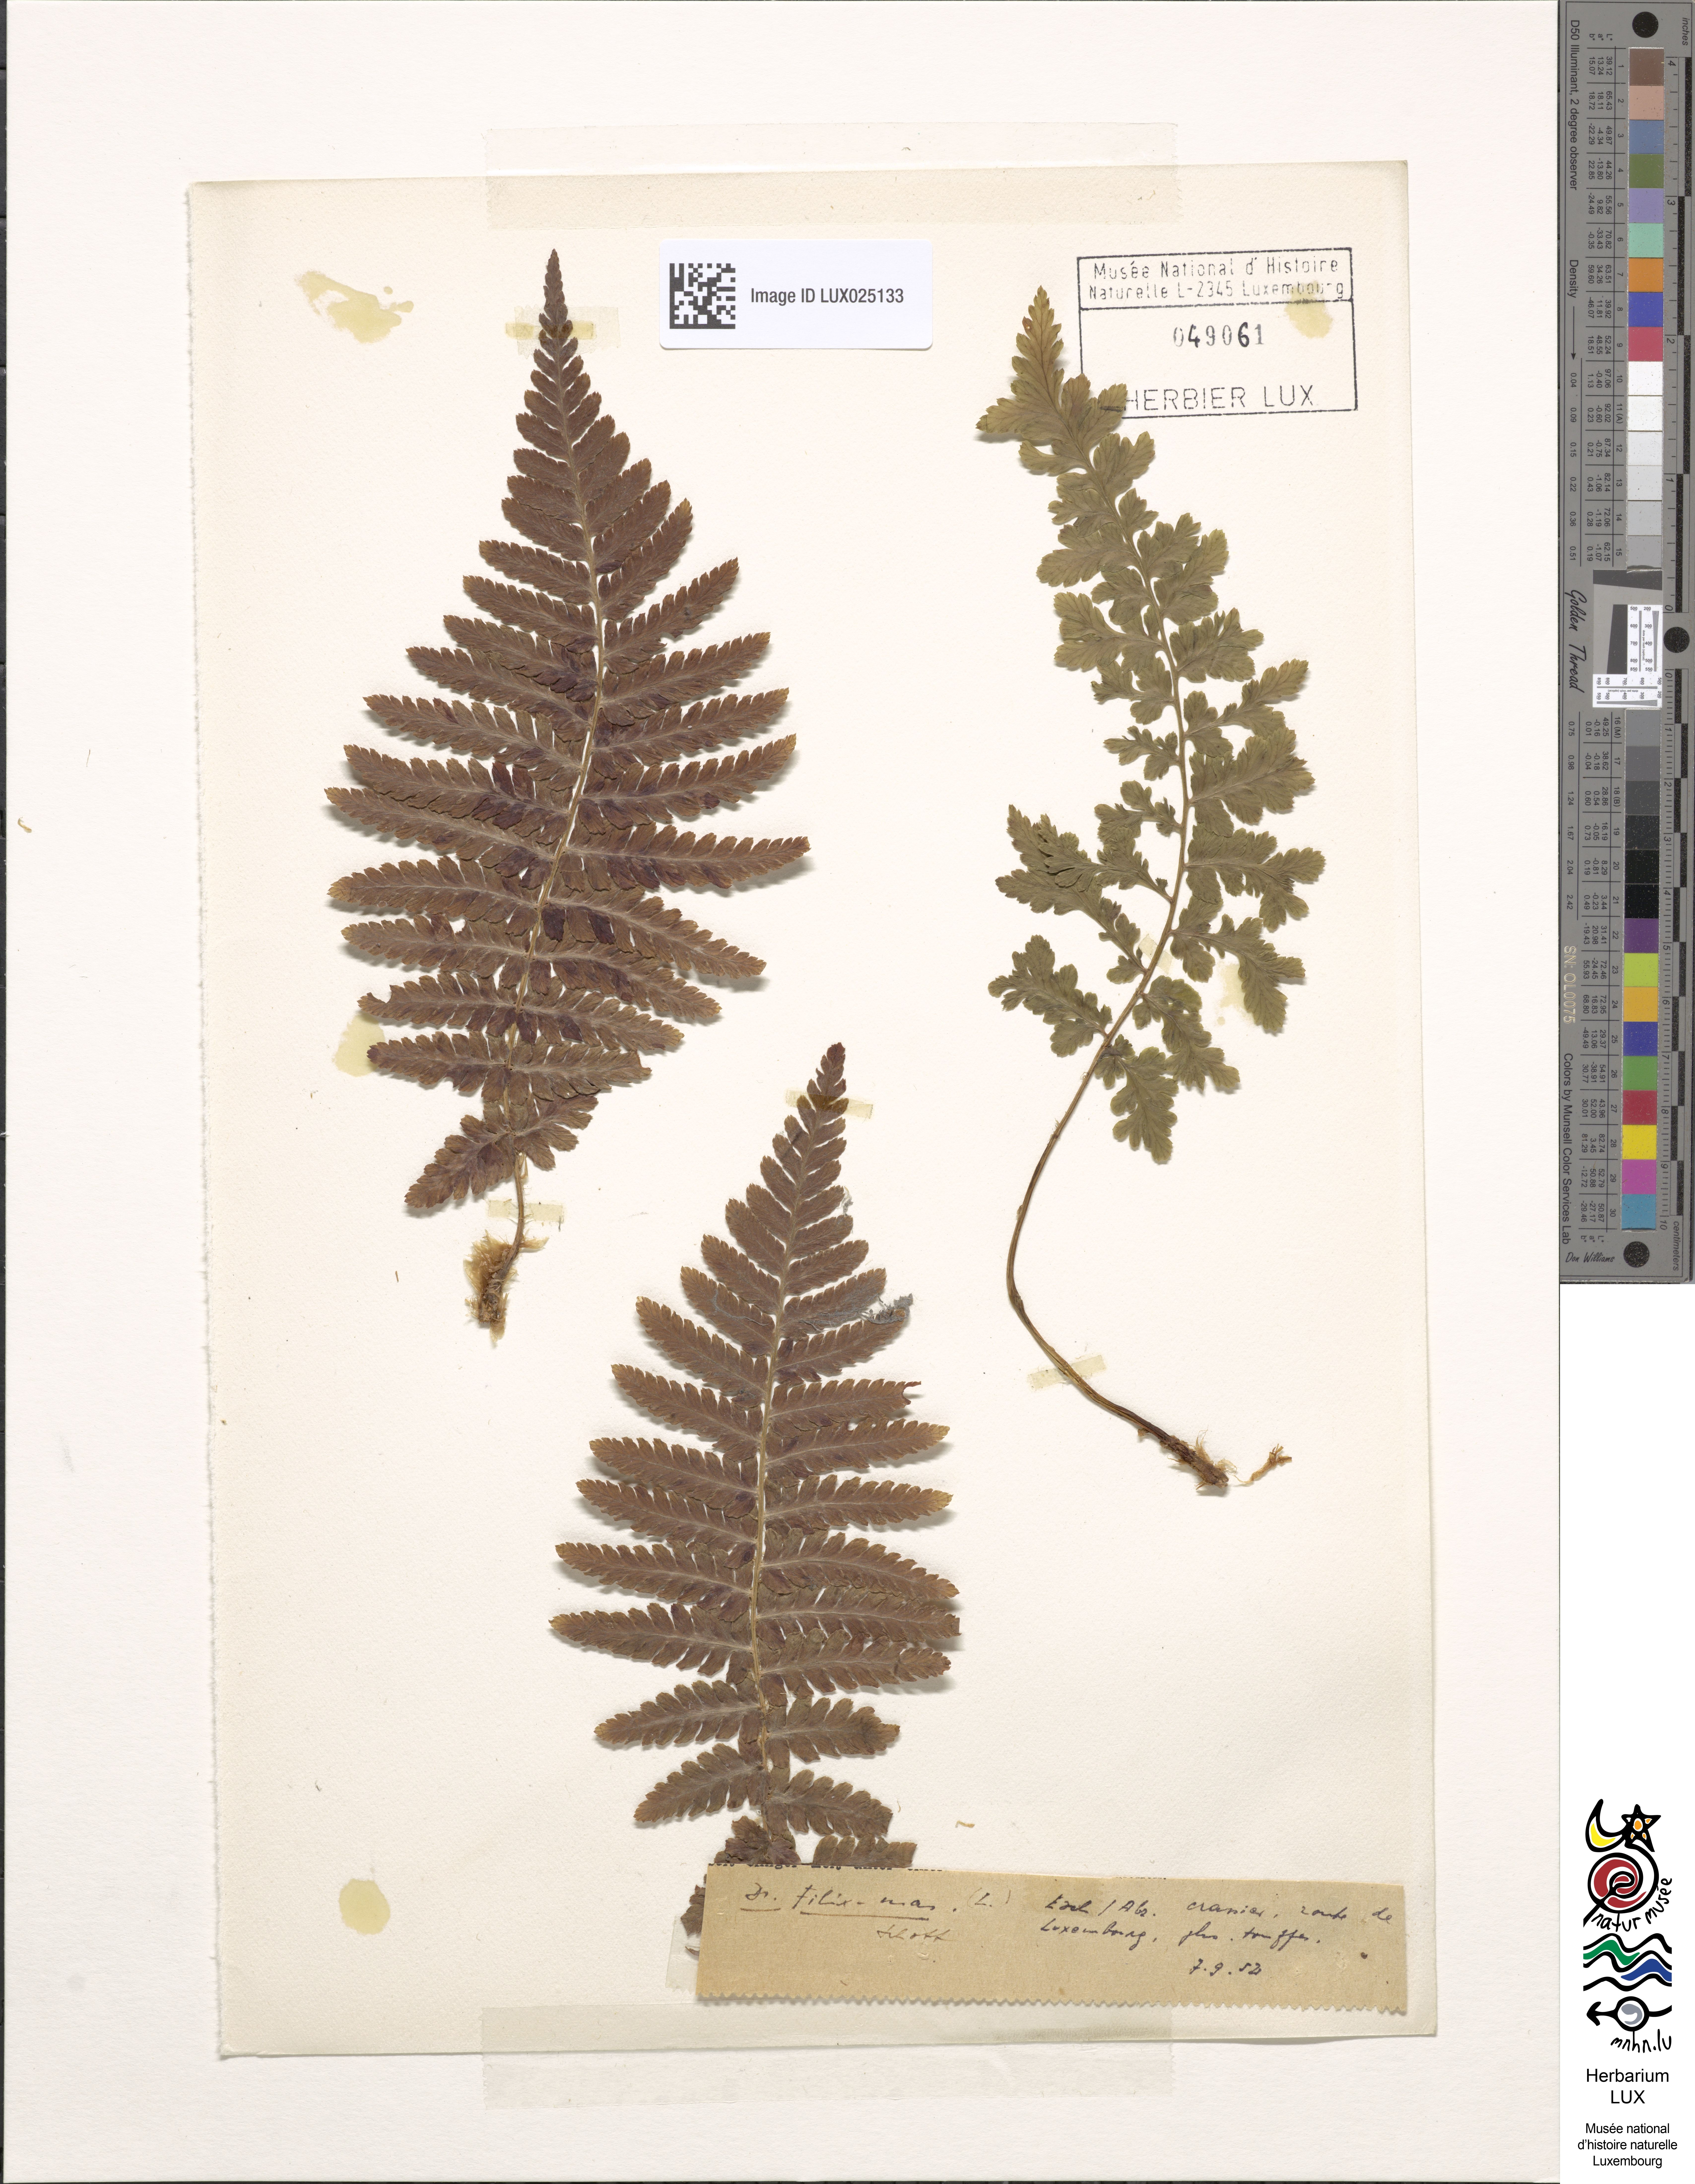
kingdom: Plantae
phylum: Tracheophyta
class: Polypodiopsida
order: Polypodiales
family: Dryopteridaceae
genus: Dryopteris
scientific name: Dryopteris filix-mas
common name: Male fern
